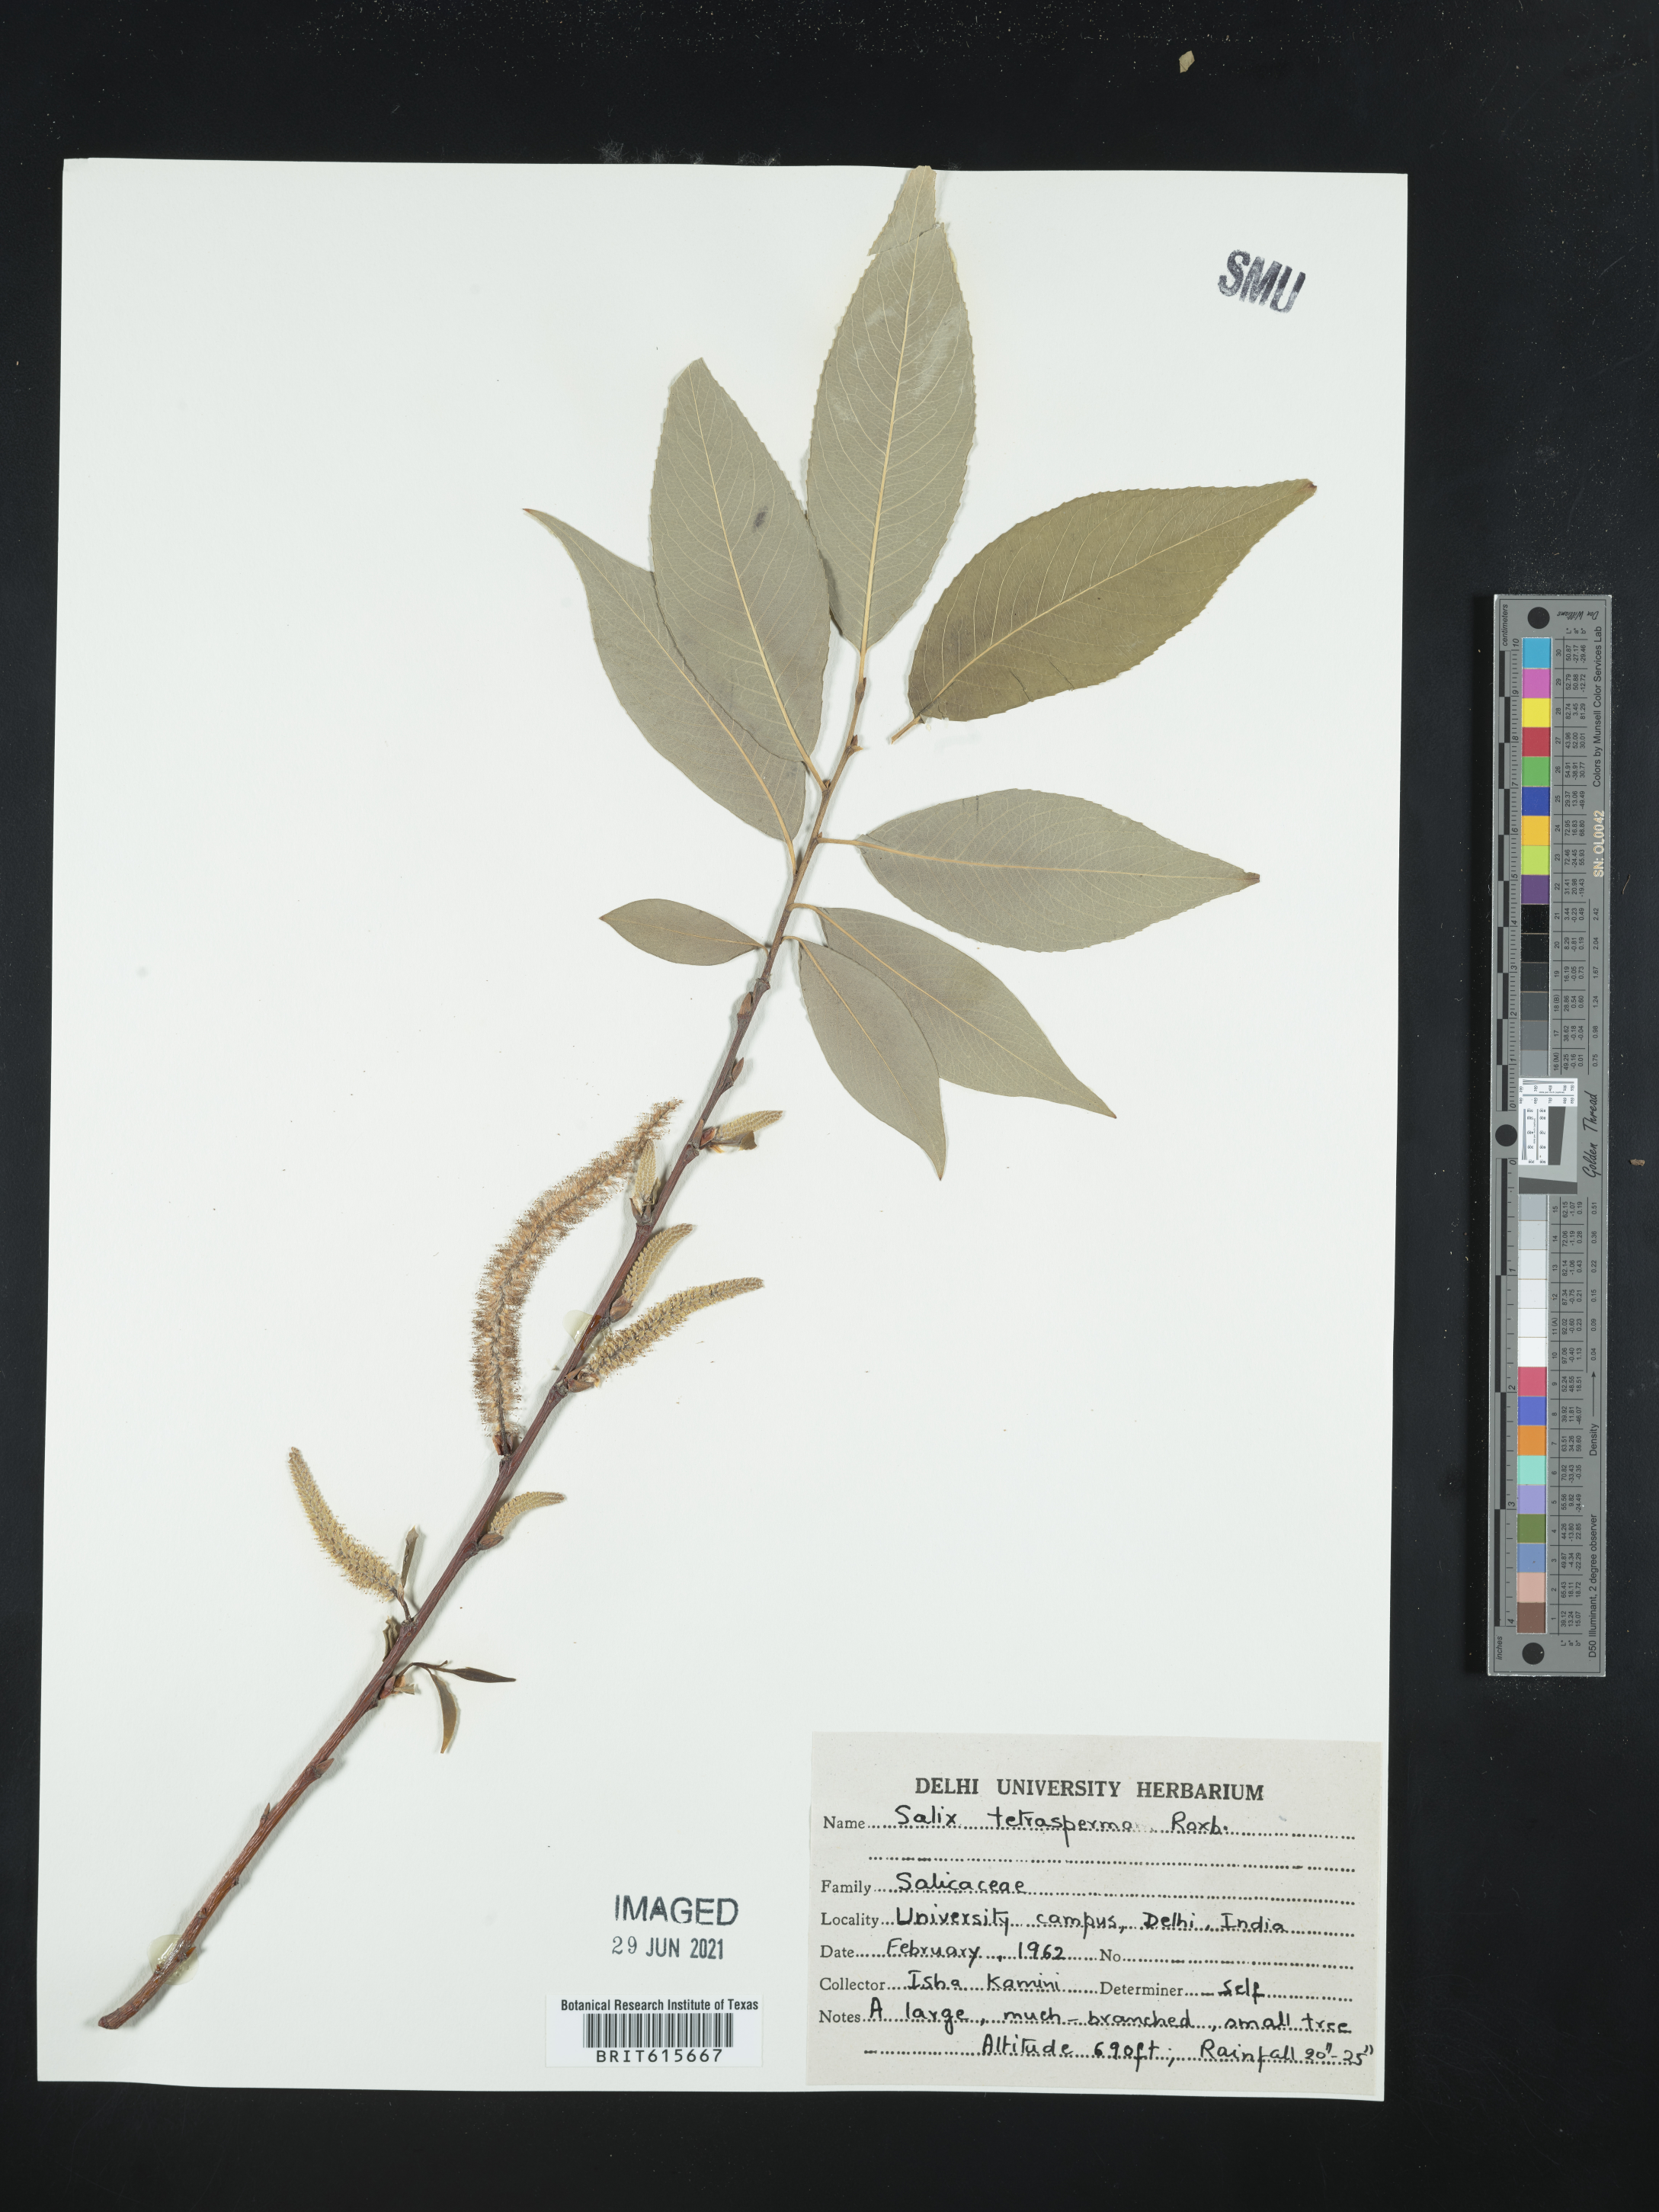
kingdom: Plantae
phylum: Tracheophyta
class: Magnoliopsida
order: Malpighiales
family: Salicaceae
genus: Salix
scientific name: Salix tetrasperma
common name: Indian willow
